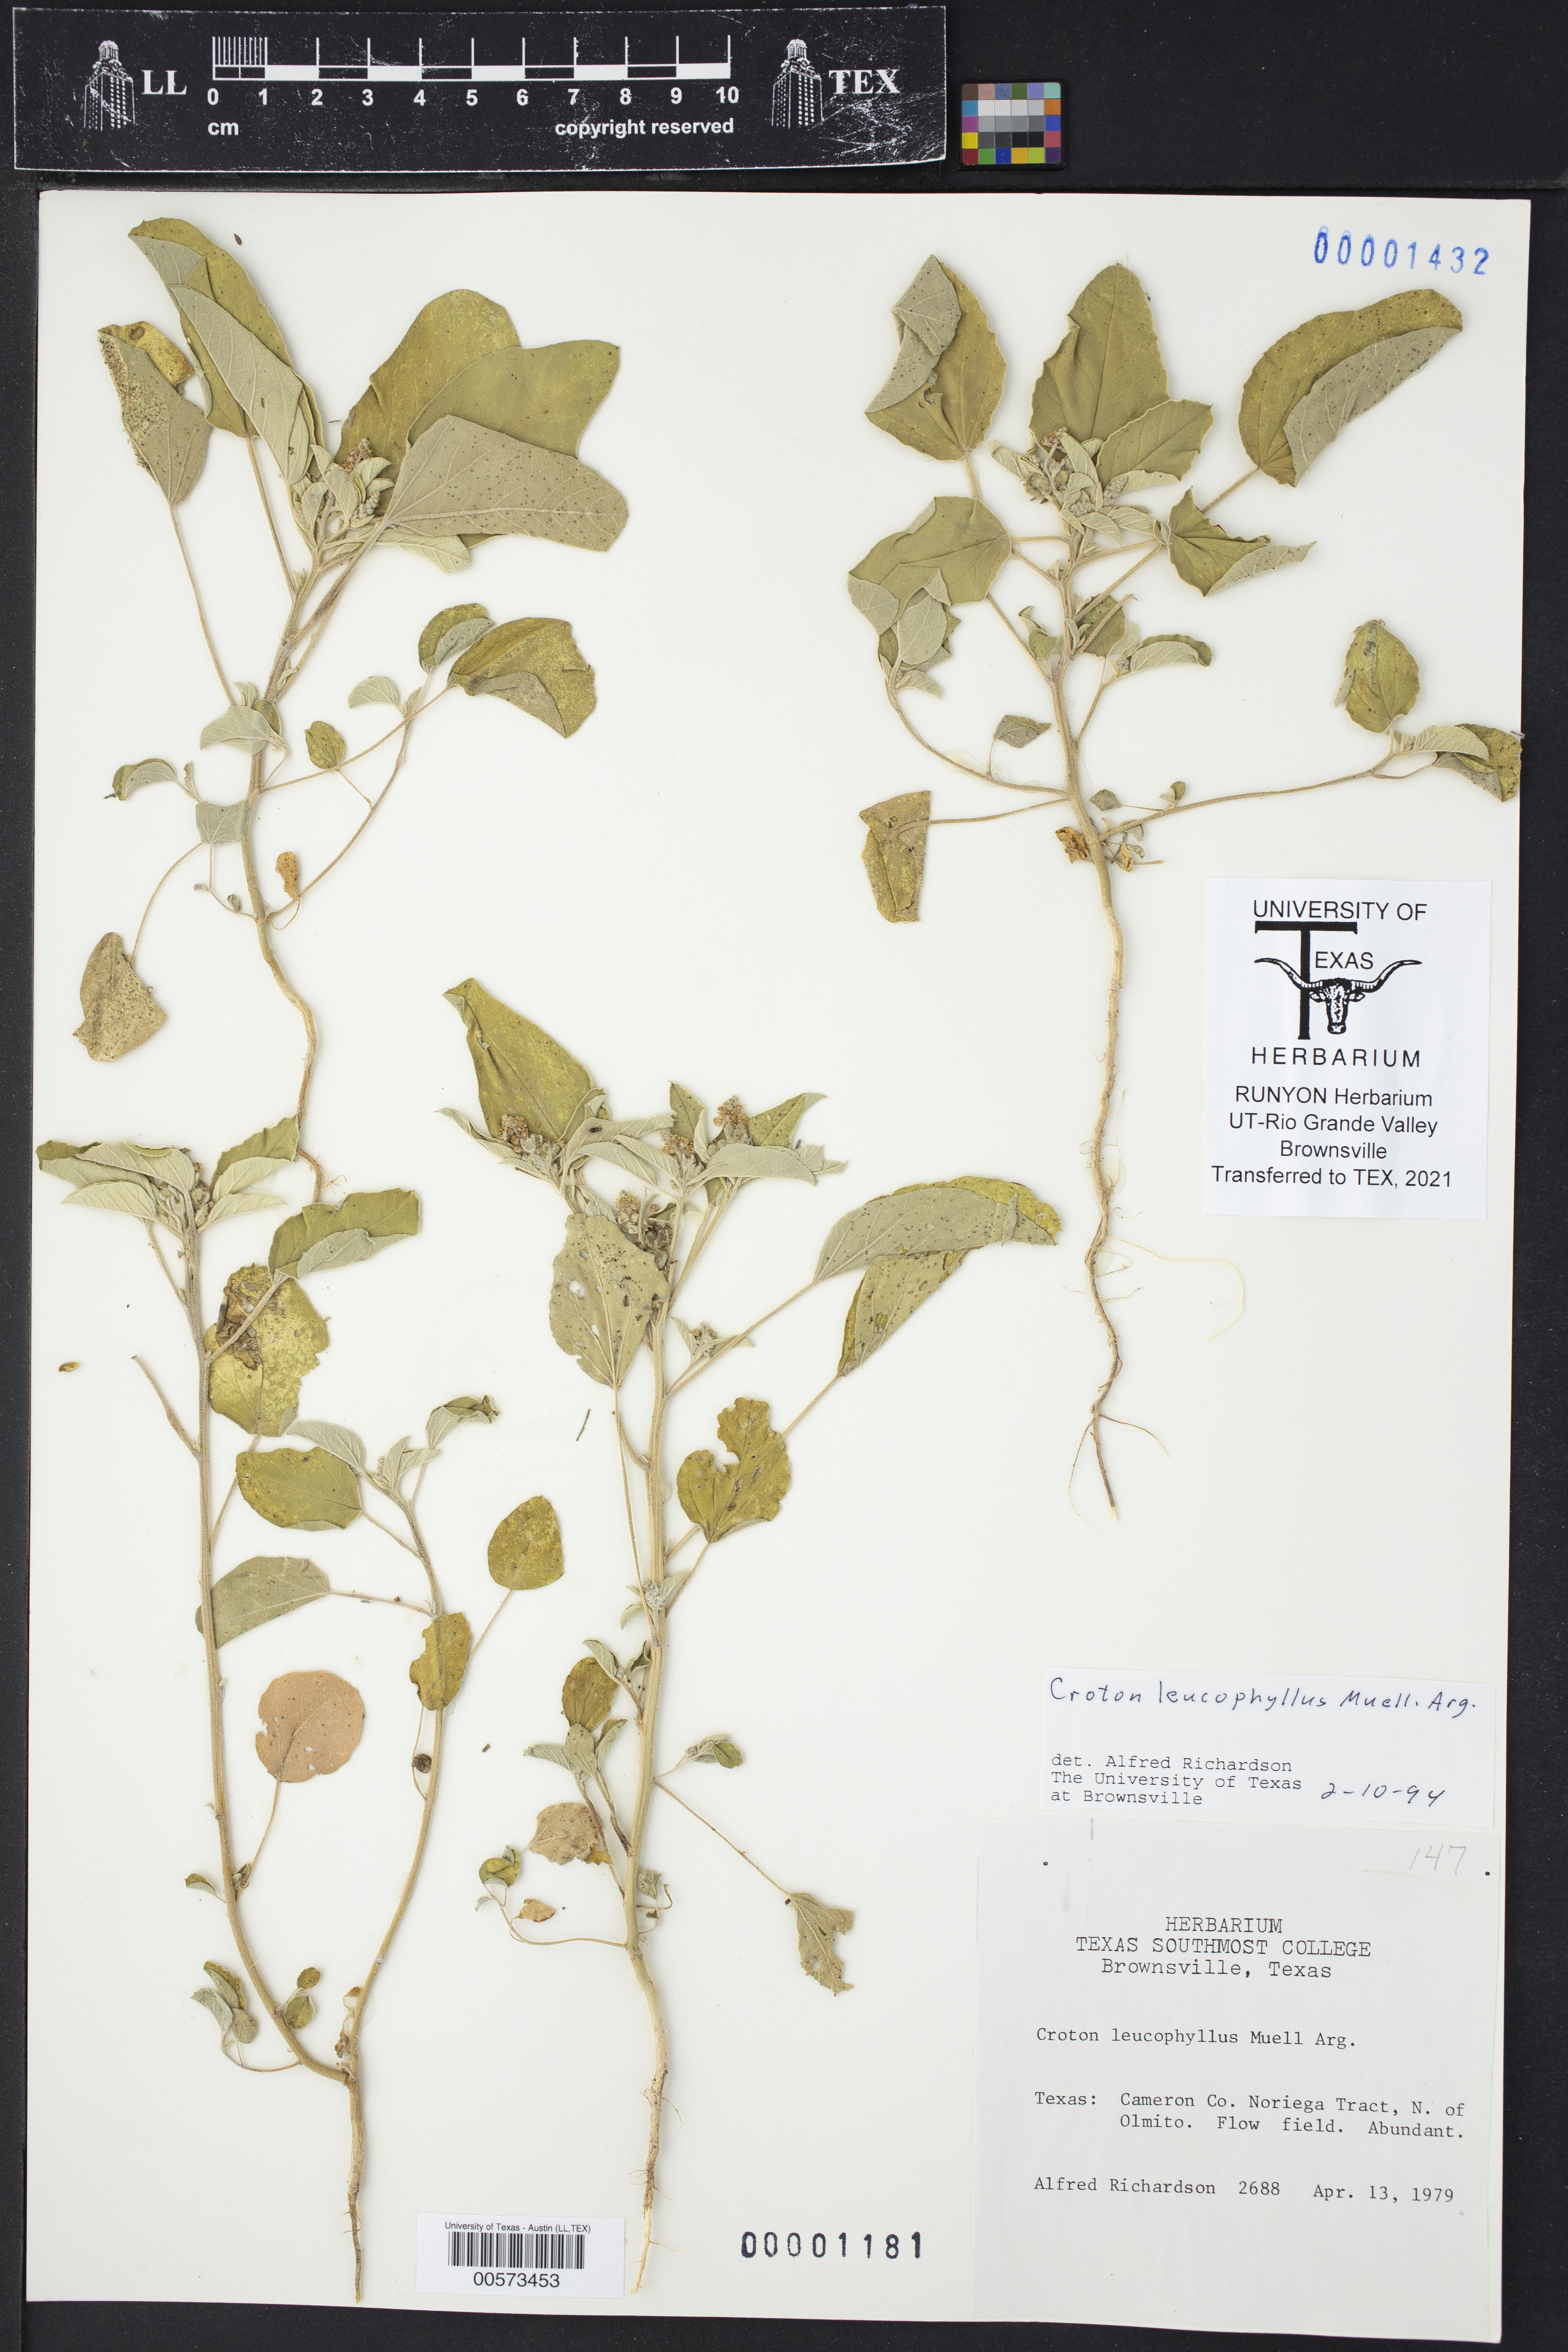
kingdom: Plantae
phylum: Tracheophyta
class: Magnoliopsida
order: Malpighiales
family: Euphorbiaceae
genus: Croton
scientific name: Croton leucophyllus
